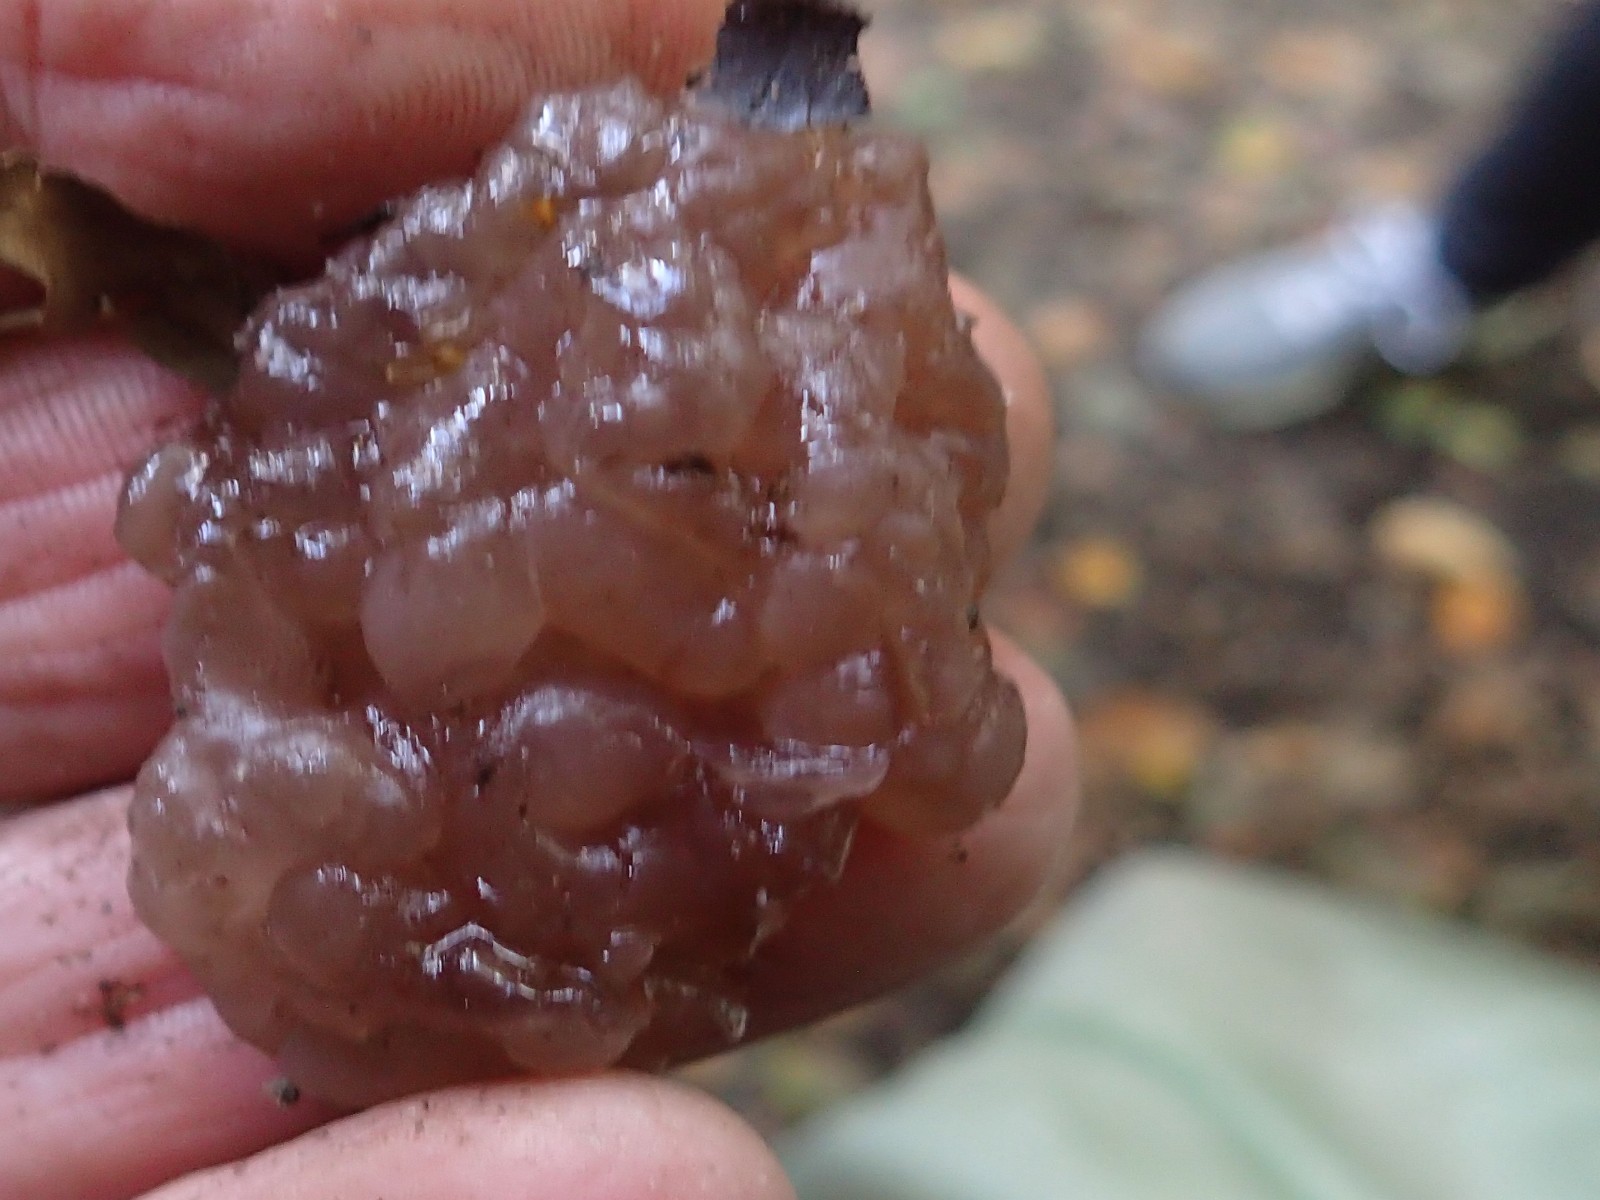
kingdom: Fungi
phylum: Ascomycota
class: Leotiomycetes
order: Helotiales
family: Gelatinodiscaceae
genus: Ascotremella
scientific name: Ascotremella faginea
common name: hjerne-bævreskive
